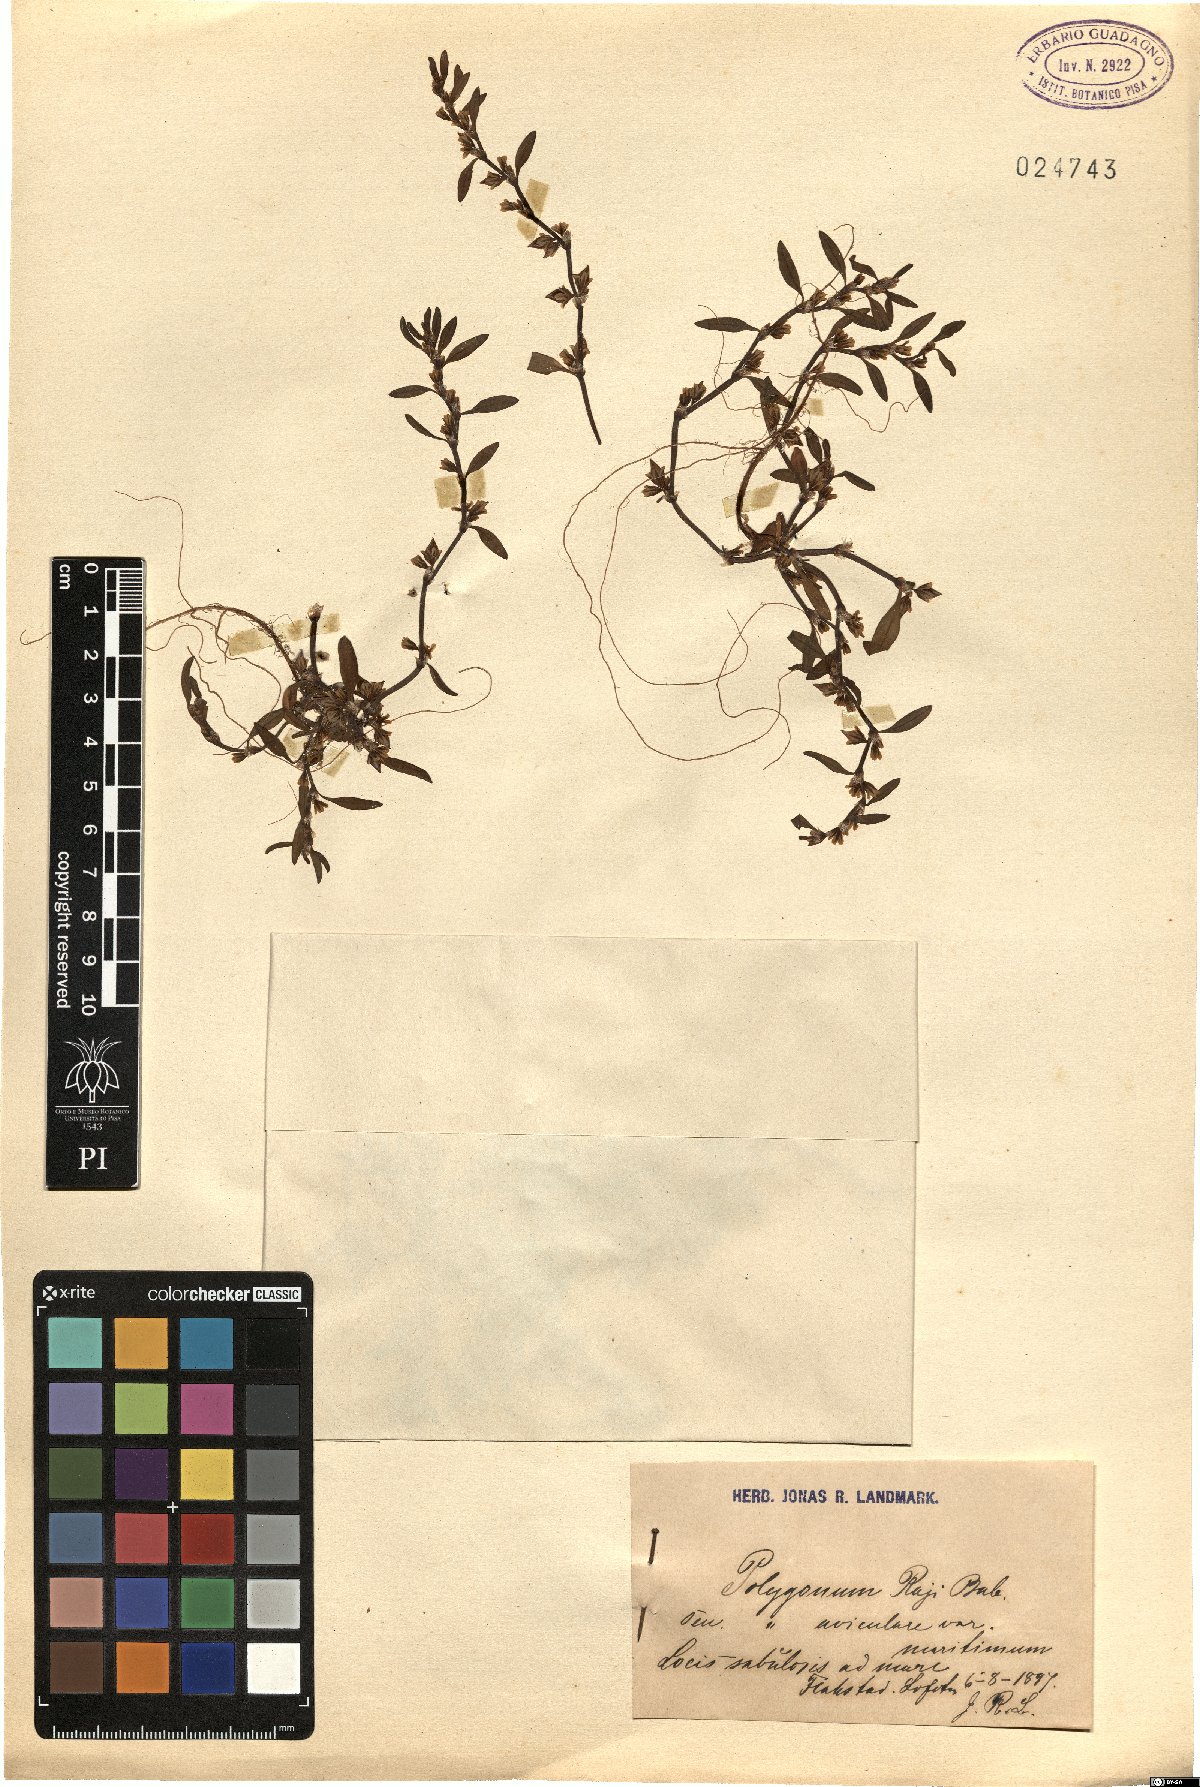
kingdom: Plantae
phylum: Tracheophyta
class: Magnoliopsida
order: Caryophyllales
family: Polygonaceae
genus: Polygonum
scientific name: Polygonum raii
